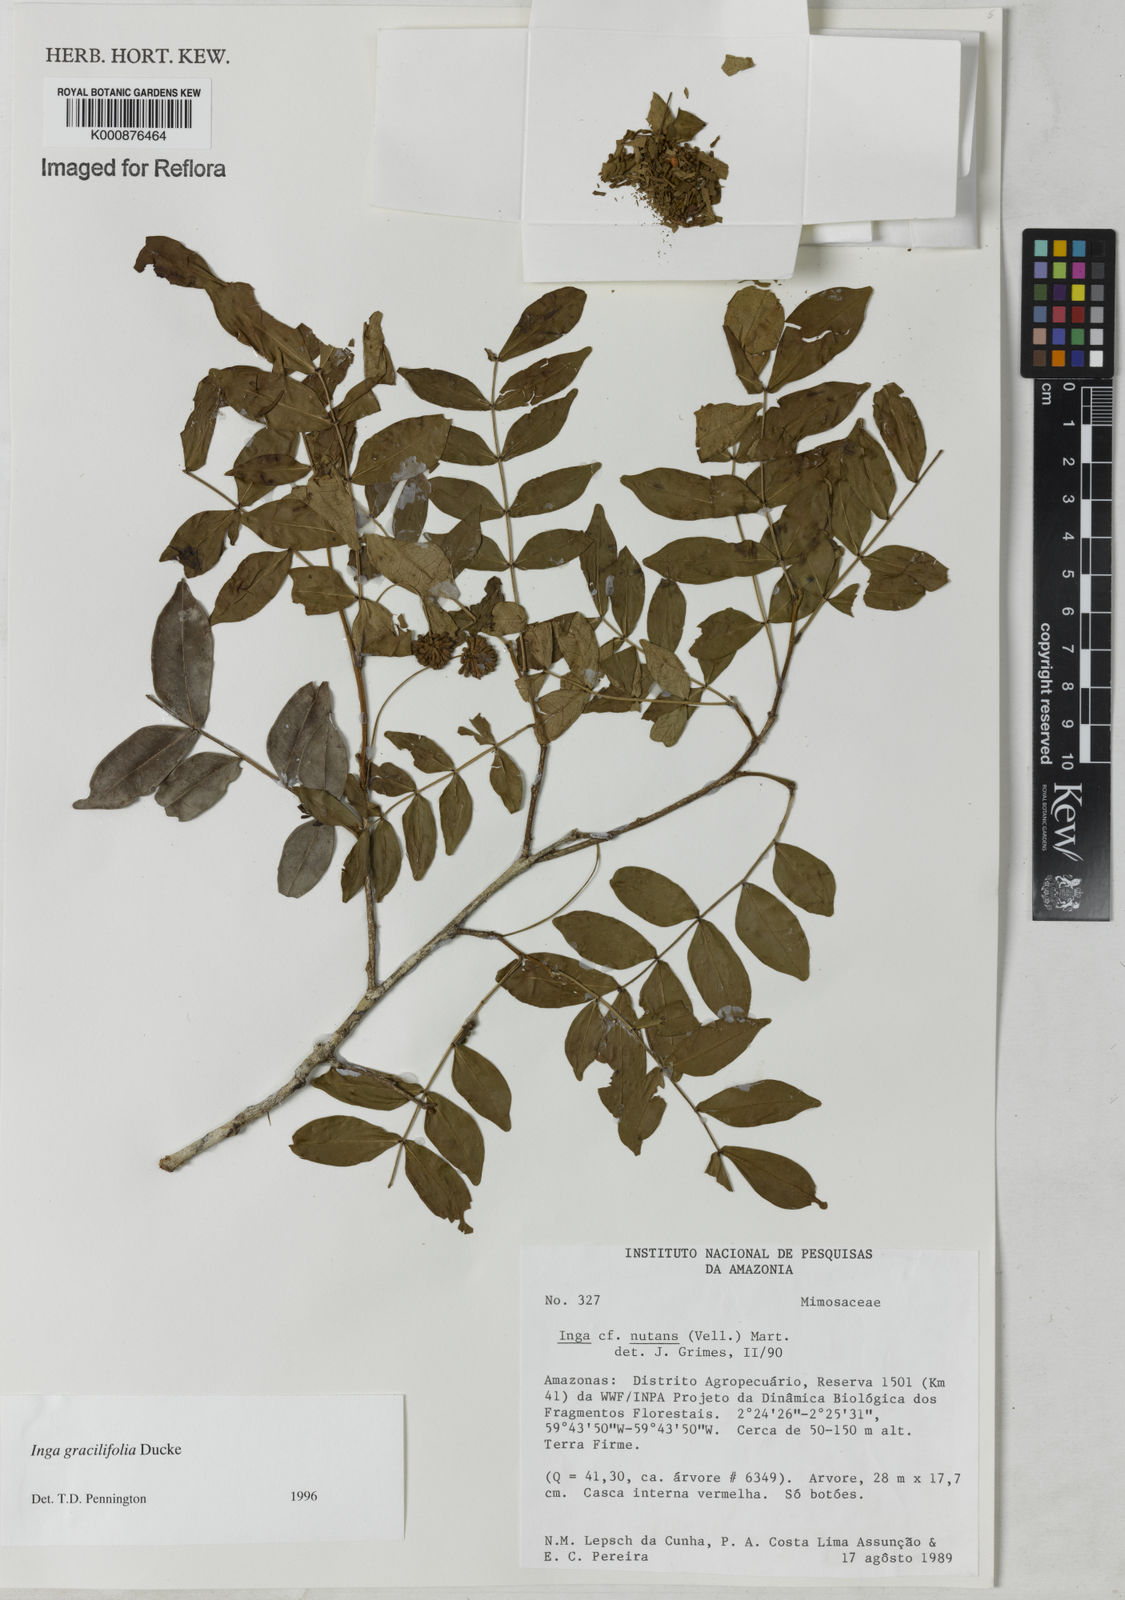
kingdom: Plantae
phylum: Tracheophyta
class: Magnoliopsida
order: Fabales
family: Fabaceae
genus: Inga
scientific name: Inga gracilifolia
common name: Gracefulleaf inga
